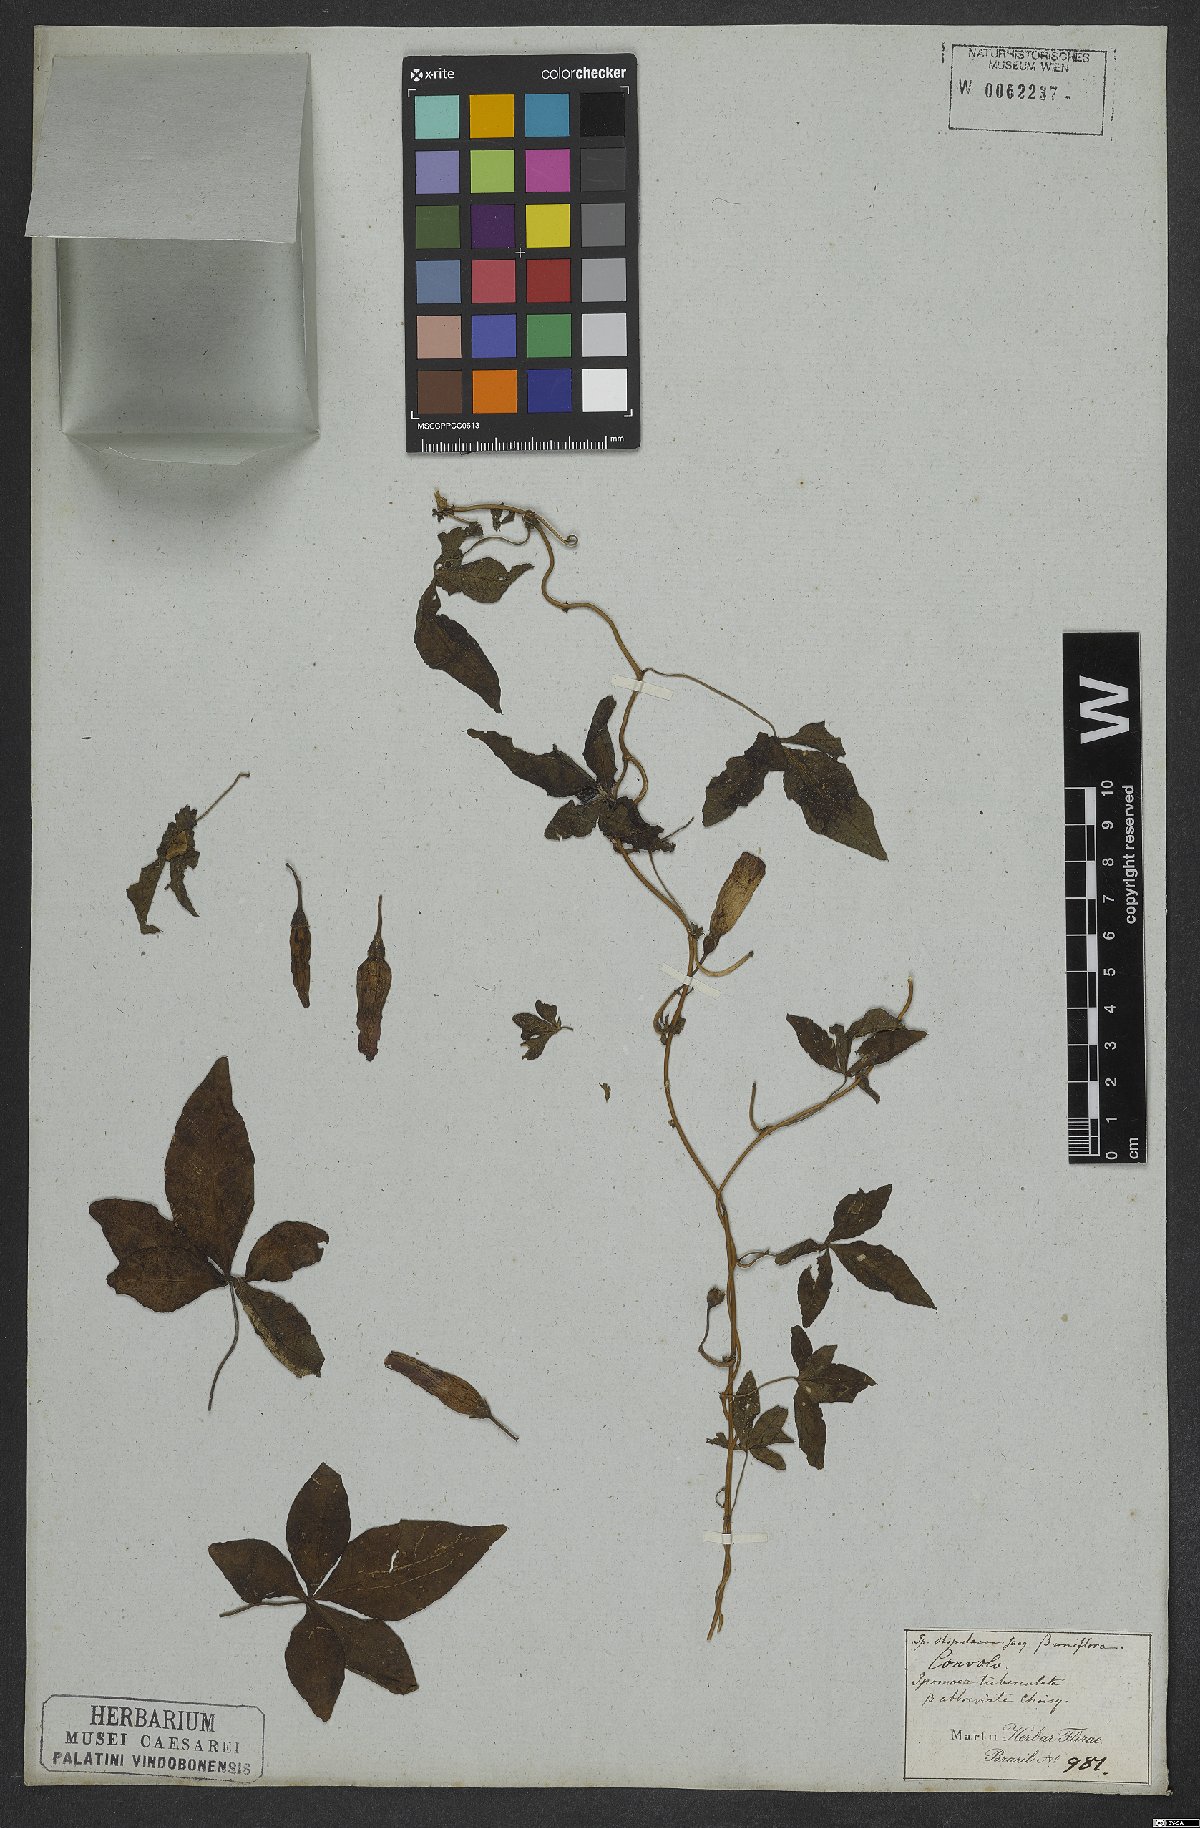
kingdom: Plantae
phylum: Tracheophyta
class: Magnoliopsida
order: Solanales
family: Convolvulaceae
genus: Ipomoea
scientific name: Ipomoea cairica
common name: Mile a minute vine
